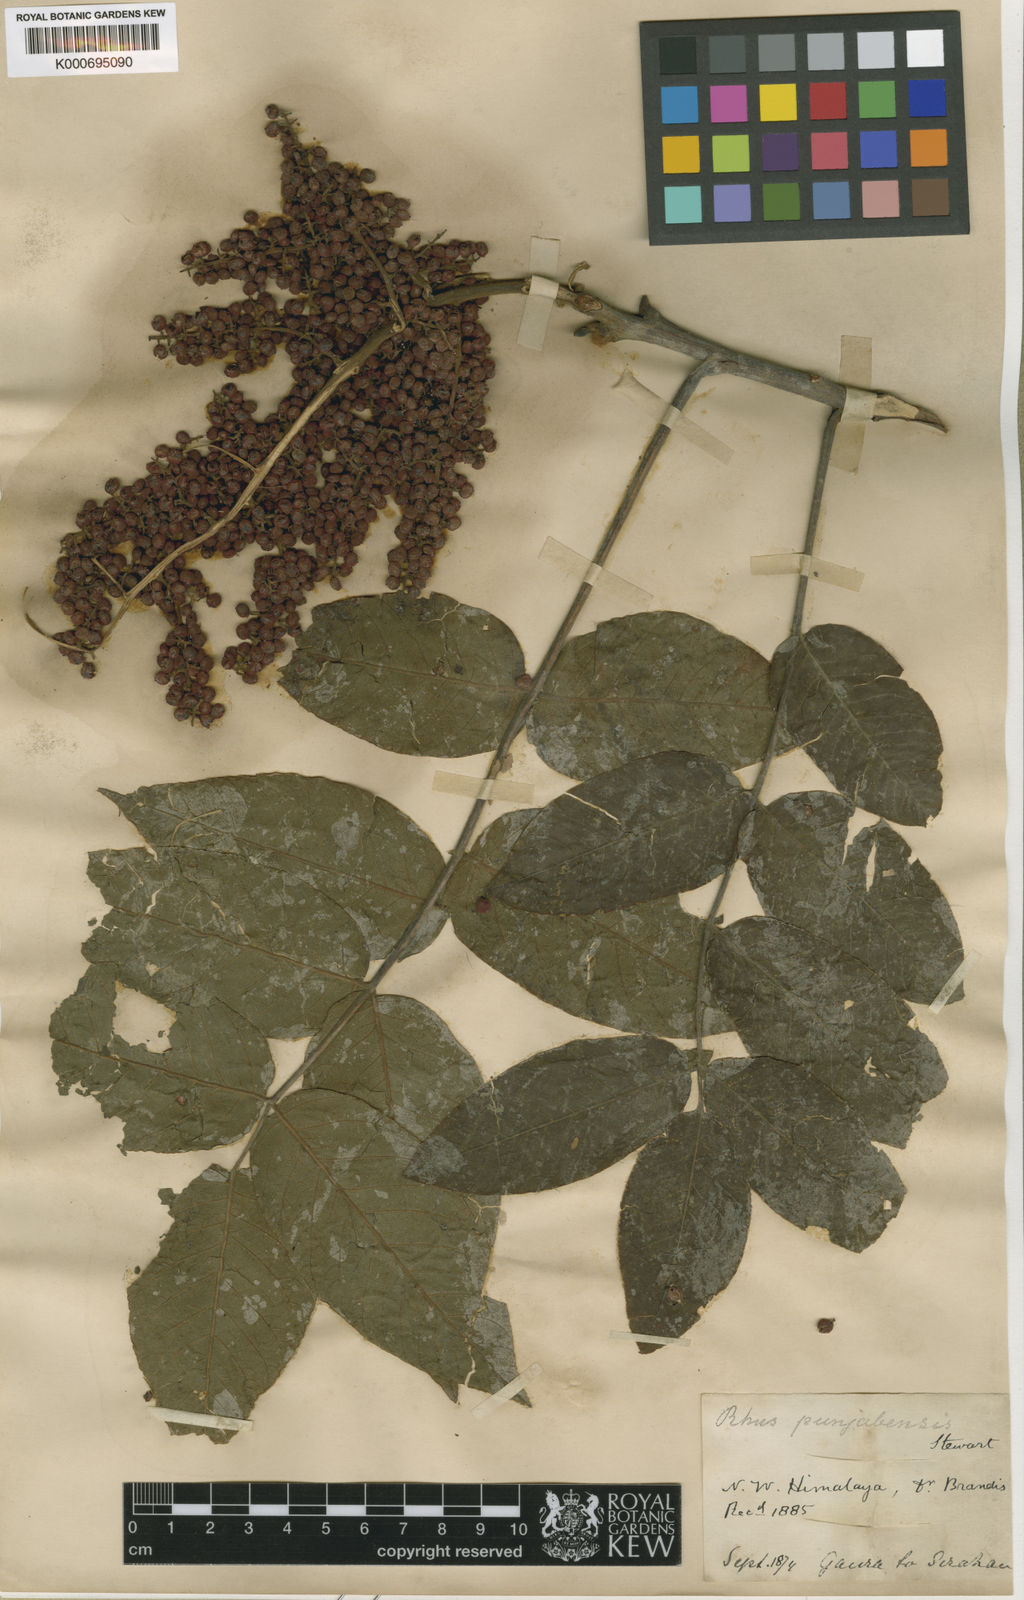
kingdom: Plantae
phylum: Tracheophyta
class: Magnoliopsida
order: Sapindales
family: Anacardiaceae
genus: Rhus
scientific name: Rhus punjabensis
